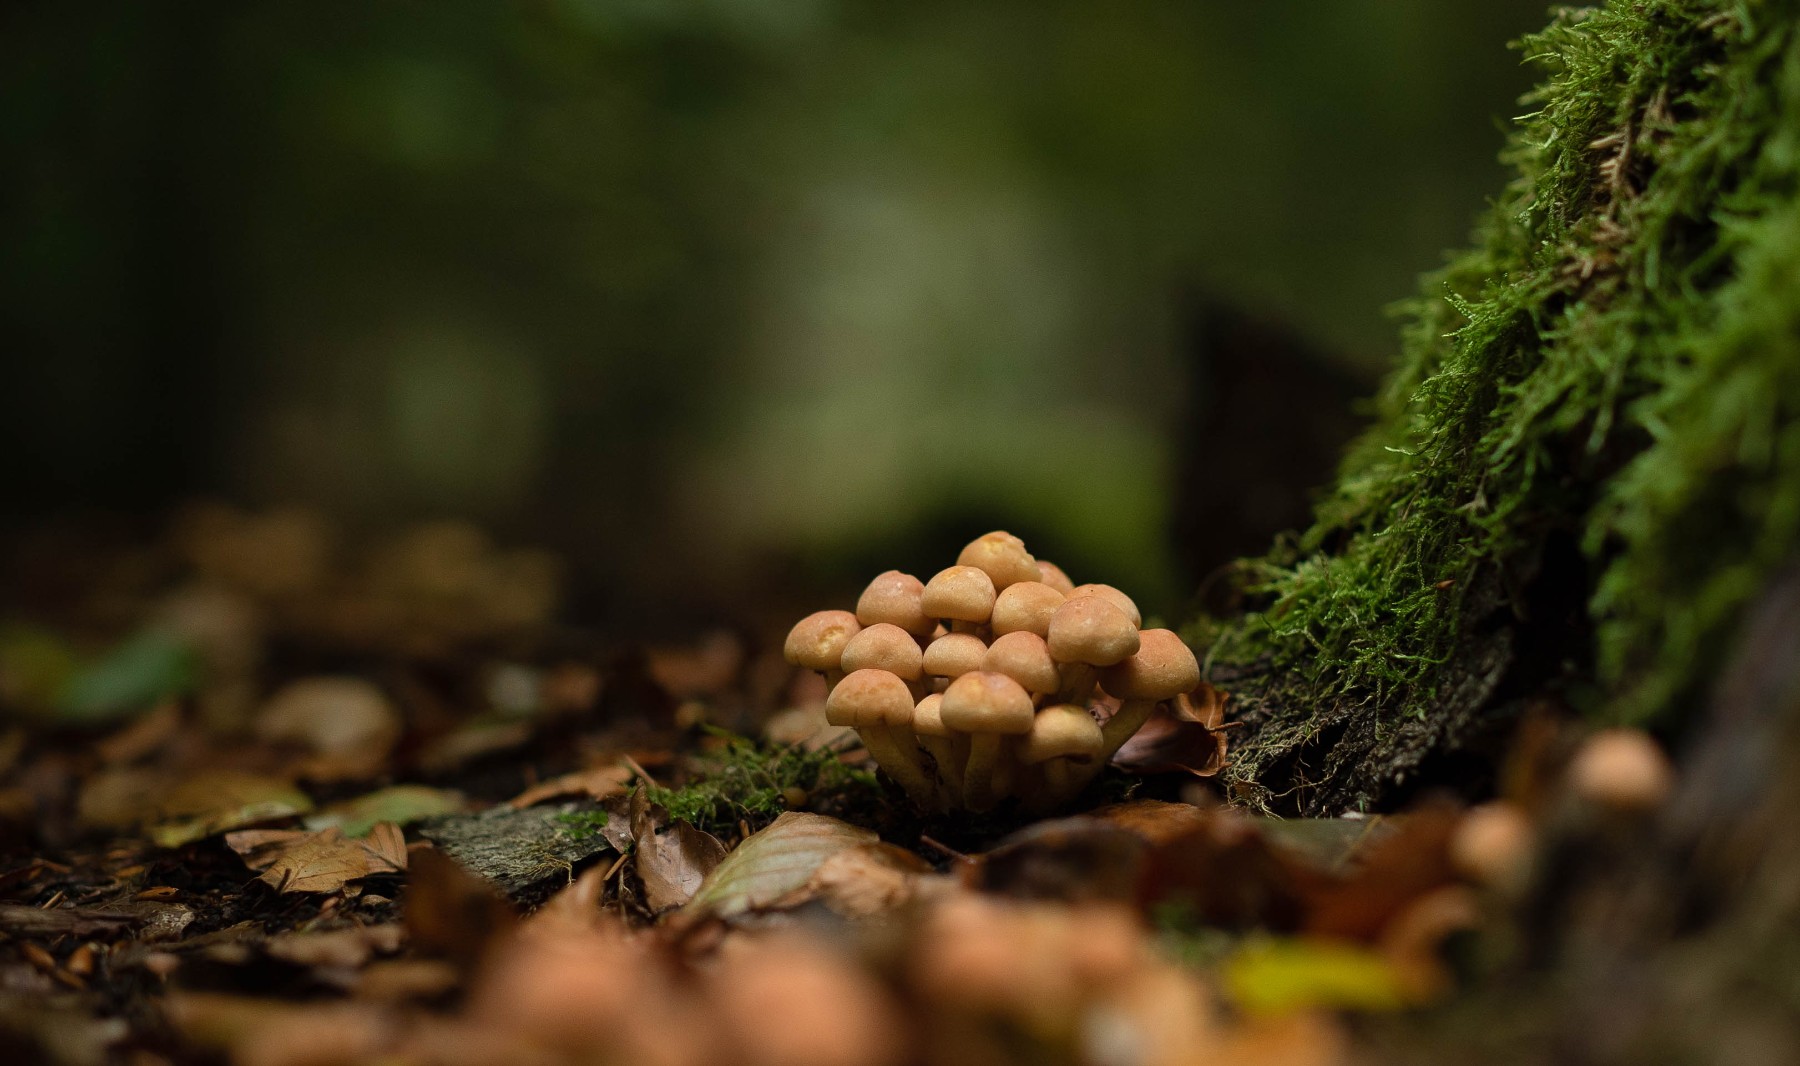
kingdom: Fungi
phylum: Basidiomycota
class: Agaricomycetes
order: Agaricales
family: Strophariaceae
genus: Hypholoma
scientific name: Hypholoma
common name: svovlhat
